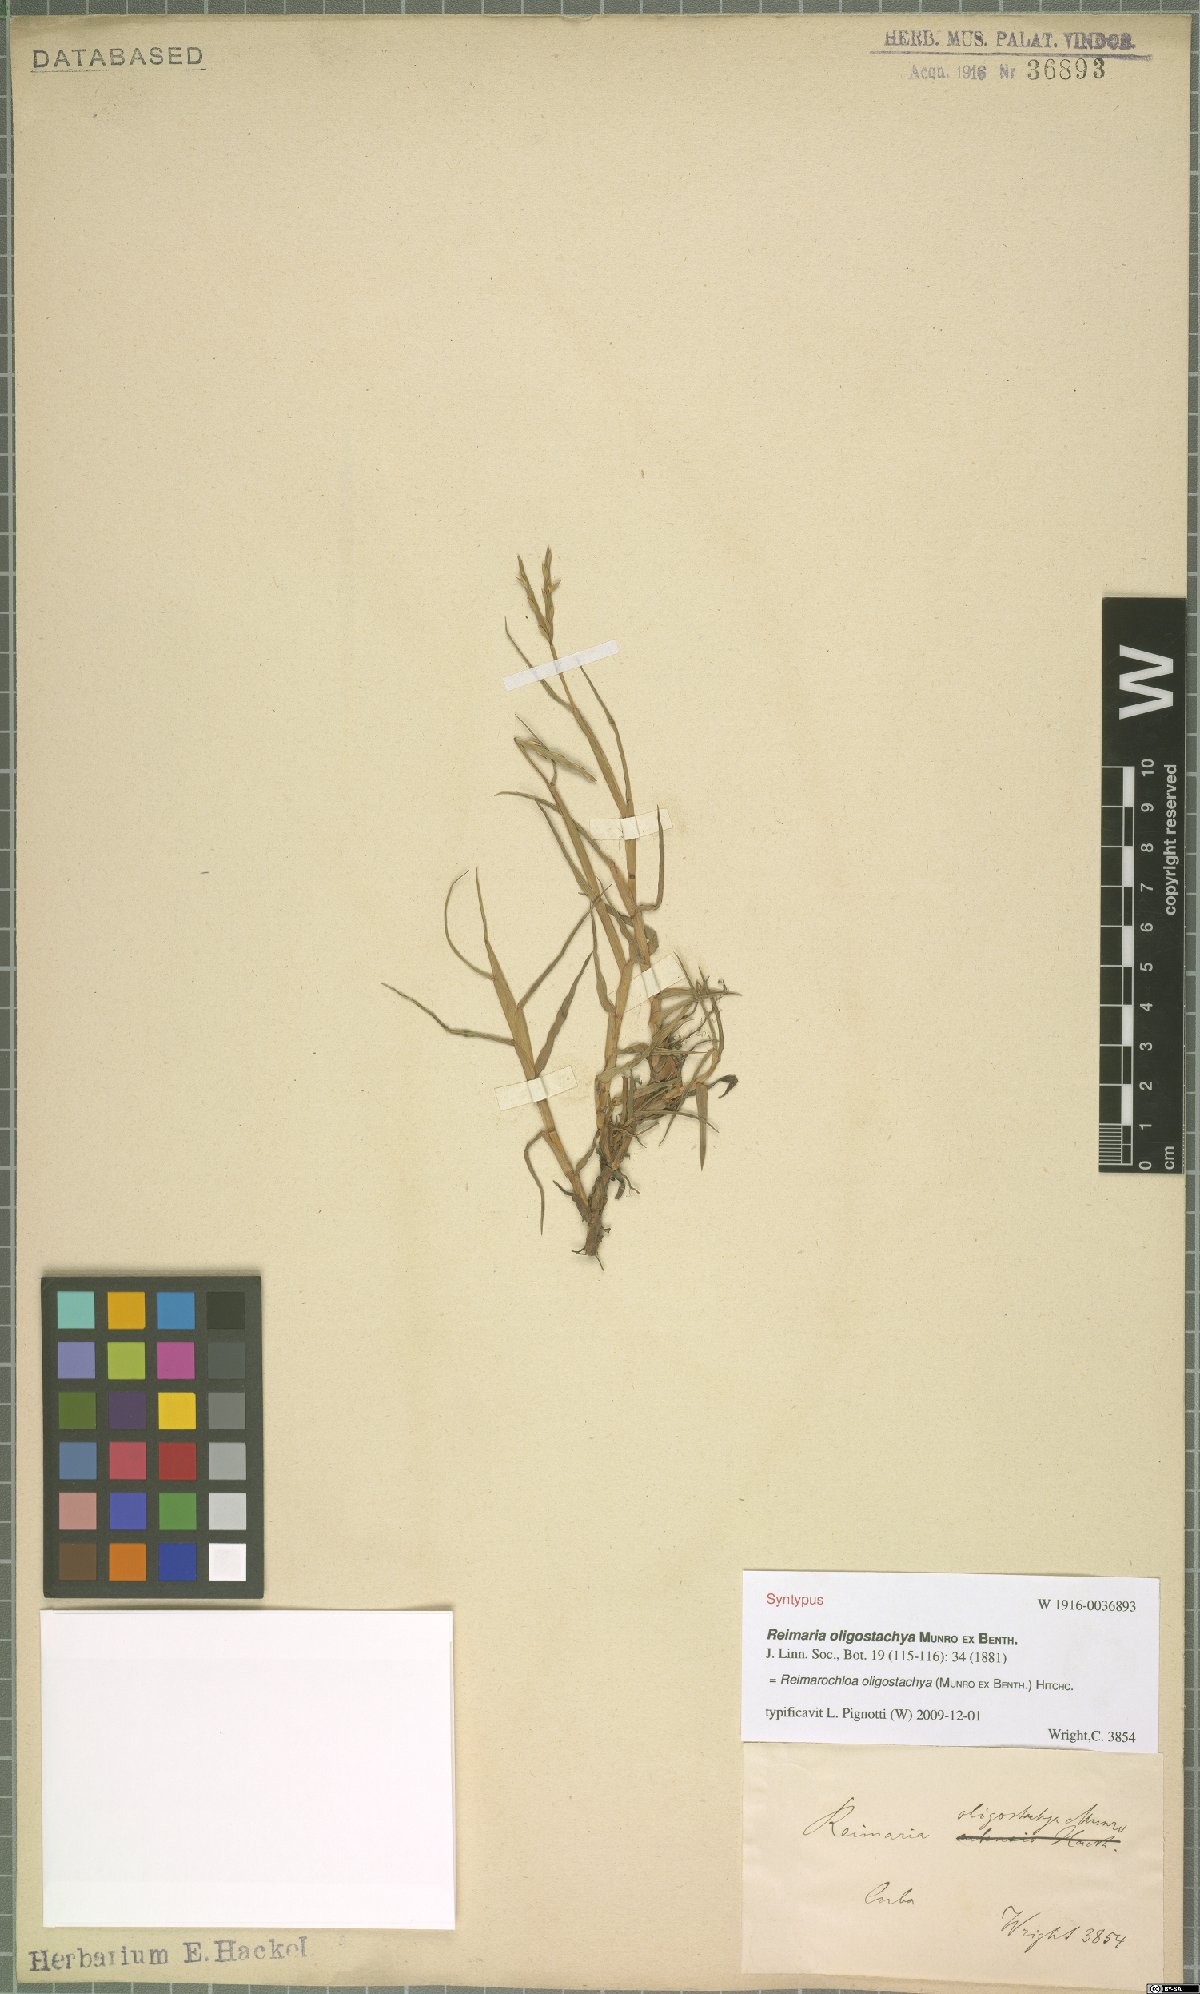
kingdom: Plantae
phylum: Tracheophyta
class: Liliopsida
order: Poales
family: Poaceae
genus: Paspalum
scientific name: Paspalum eglume
